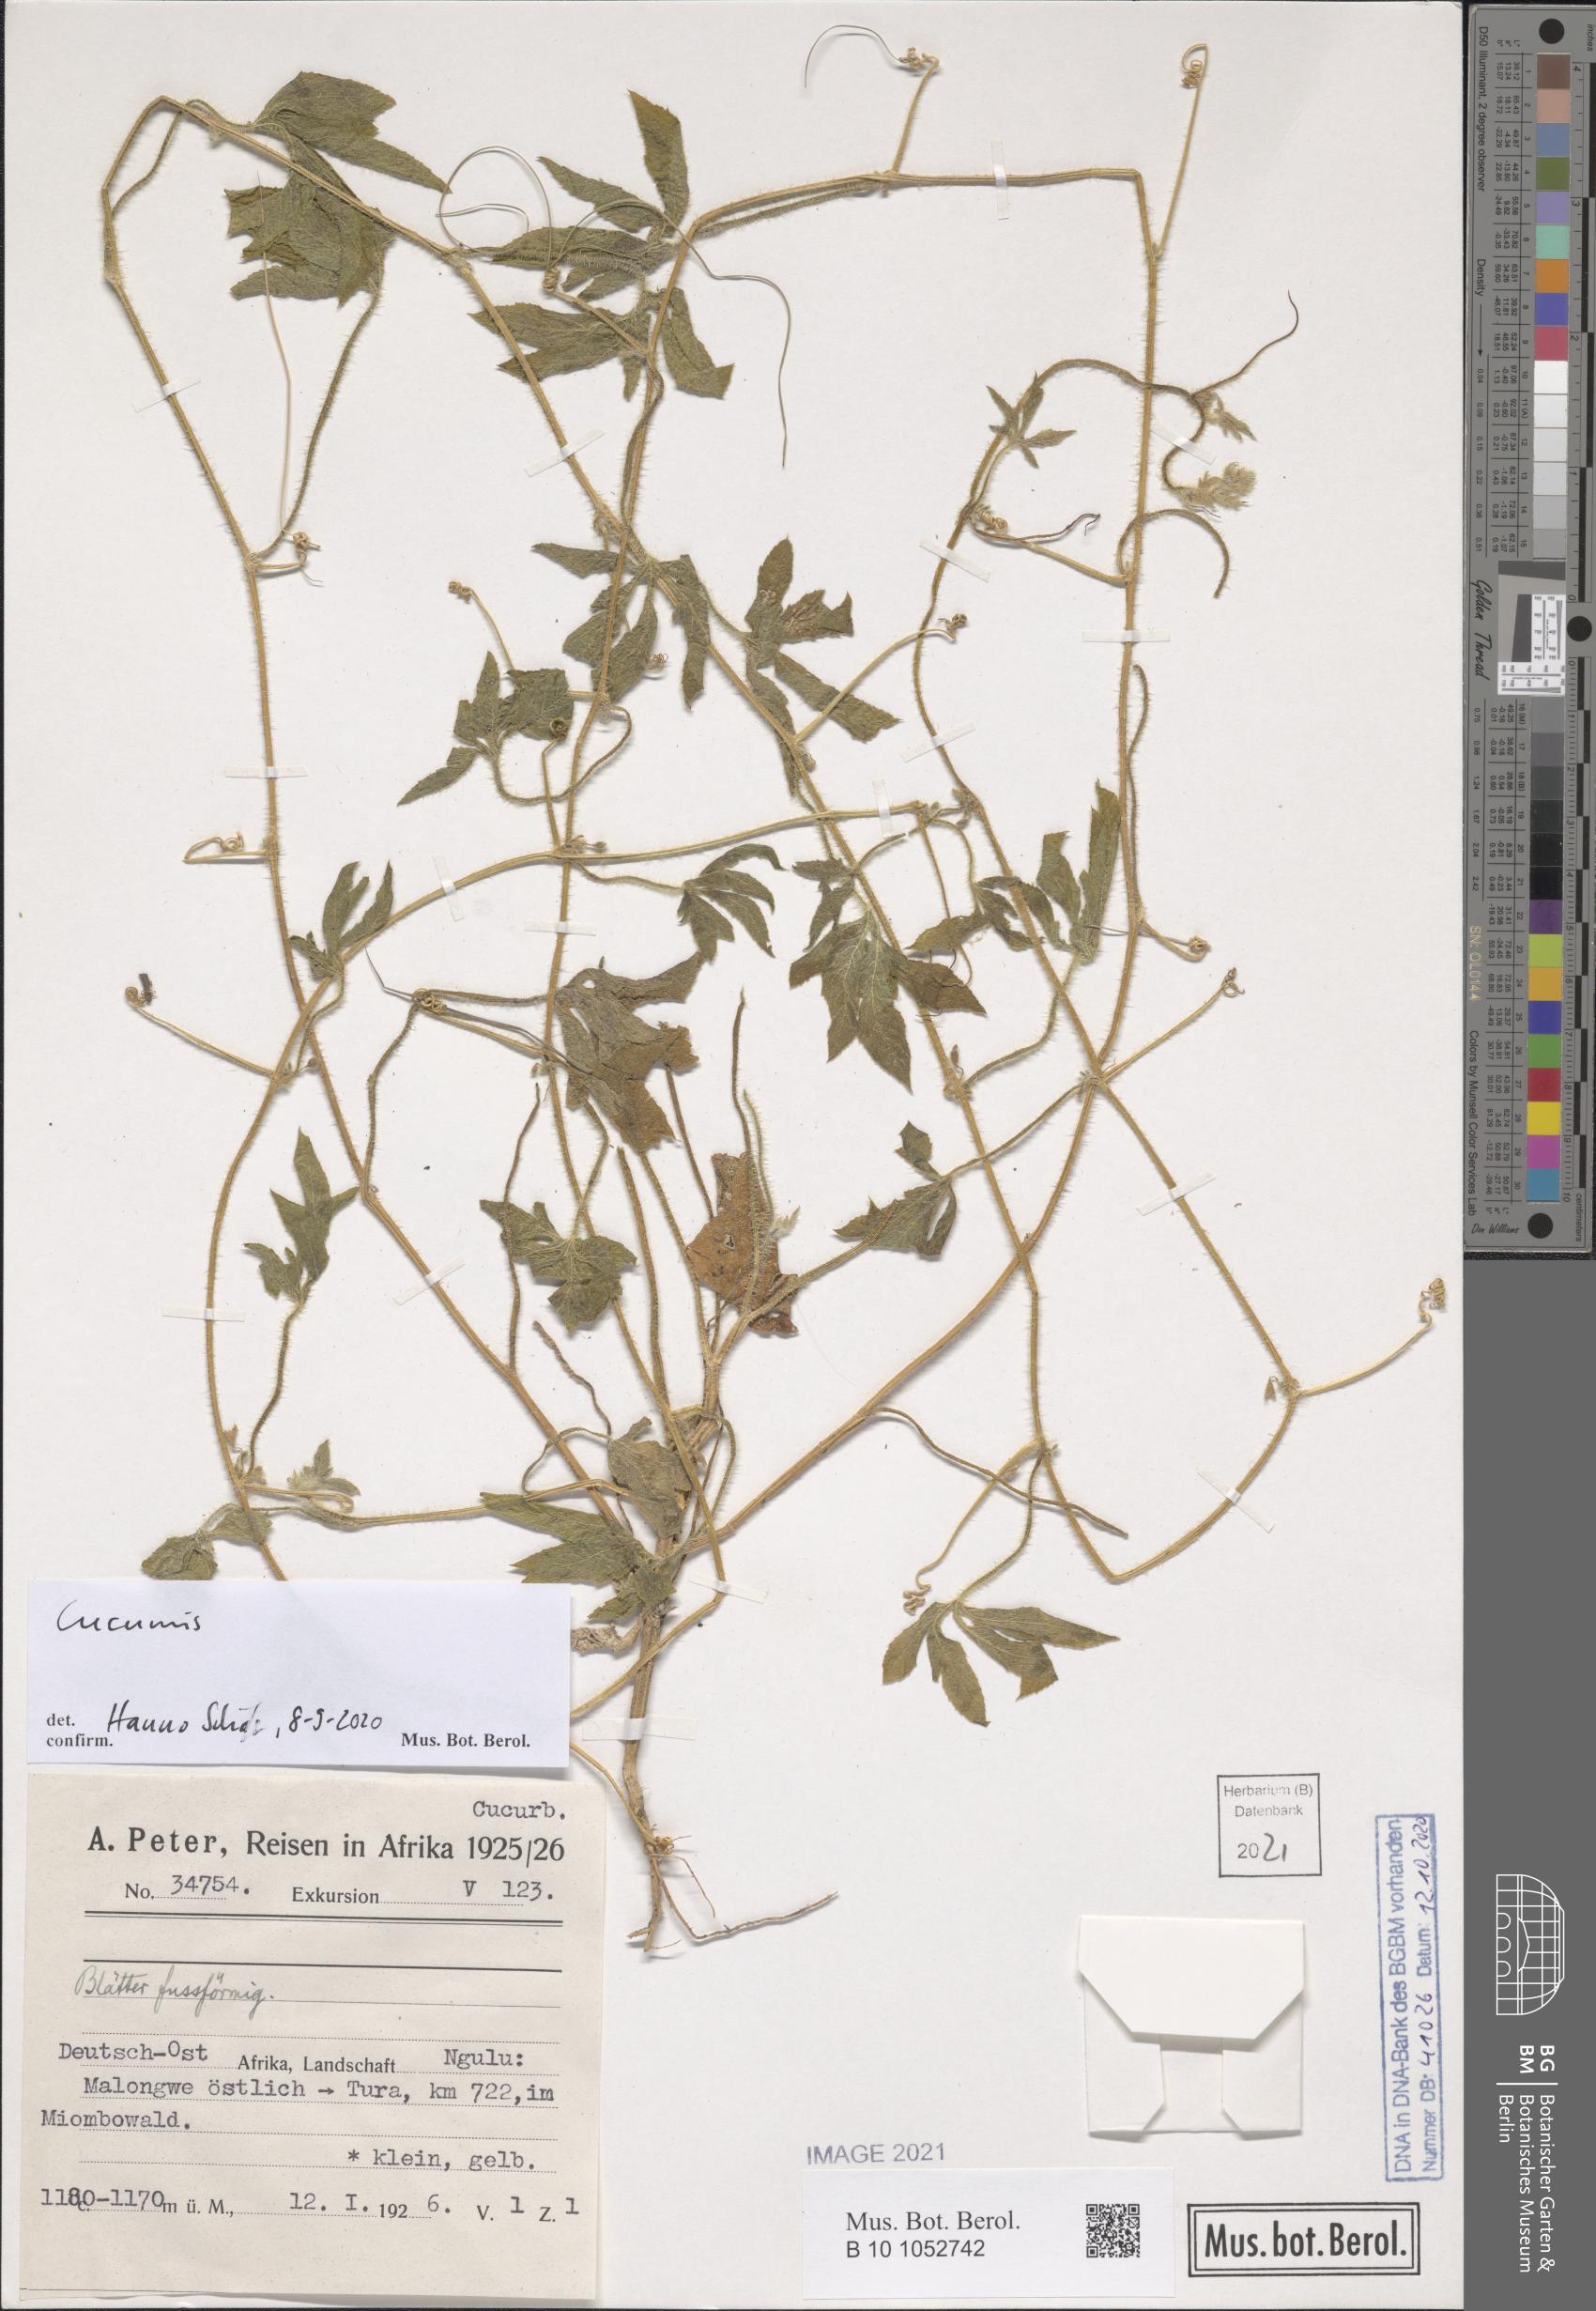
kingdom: Plantae
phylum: Tracheophyta
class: Magnoliopsida
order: Cucurbitales
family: Cucurbitaceae
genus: Cucumis
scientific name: Cucumis
